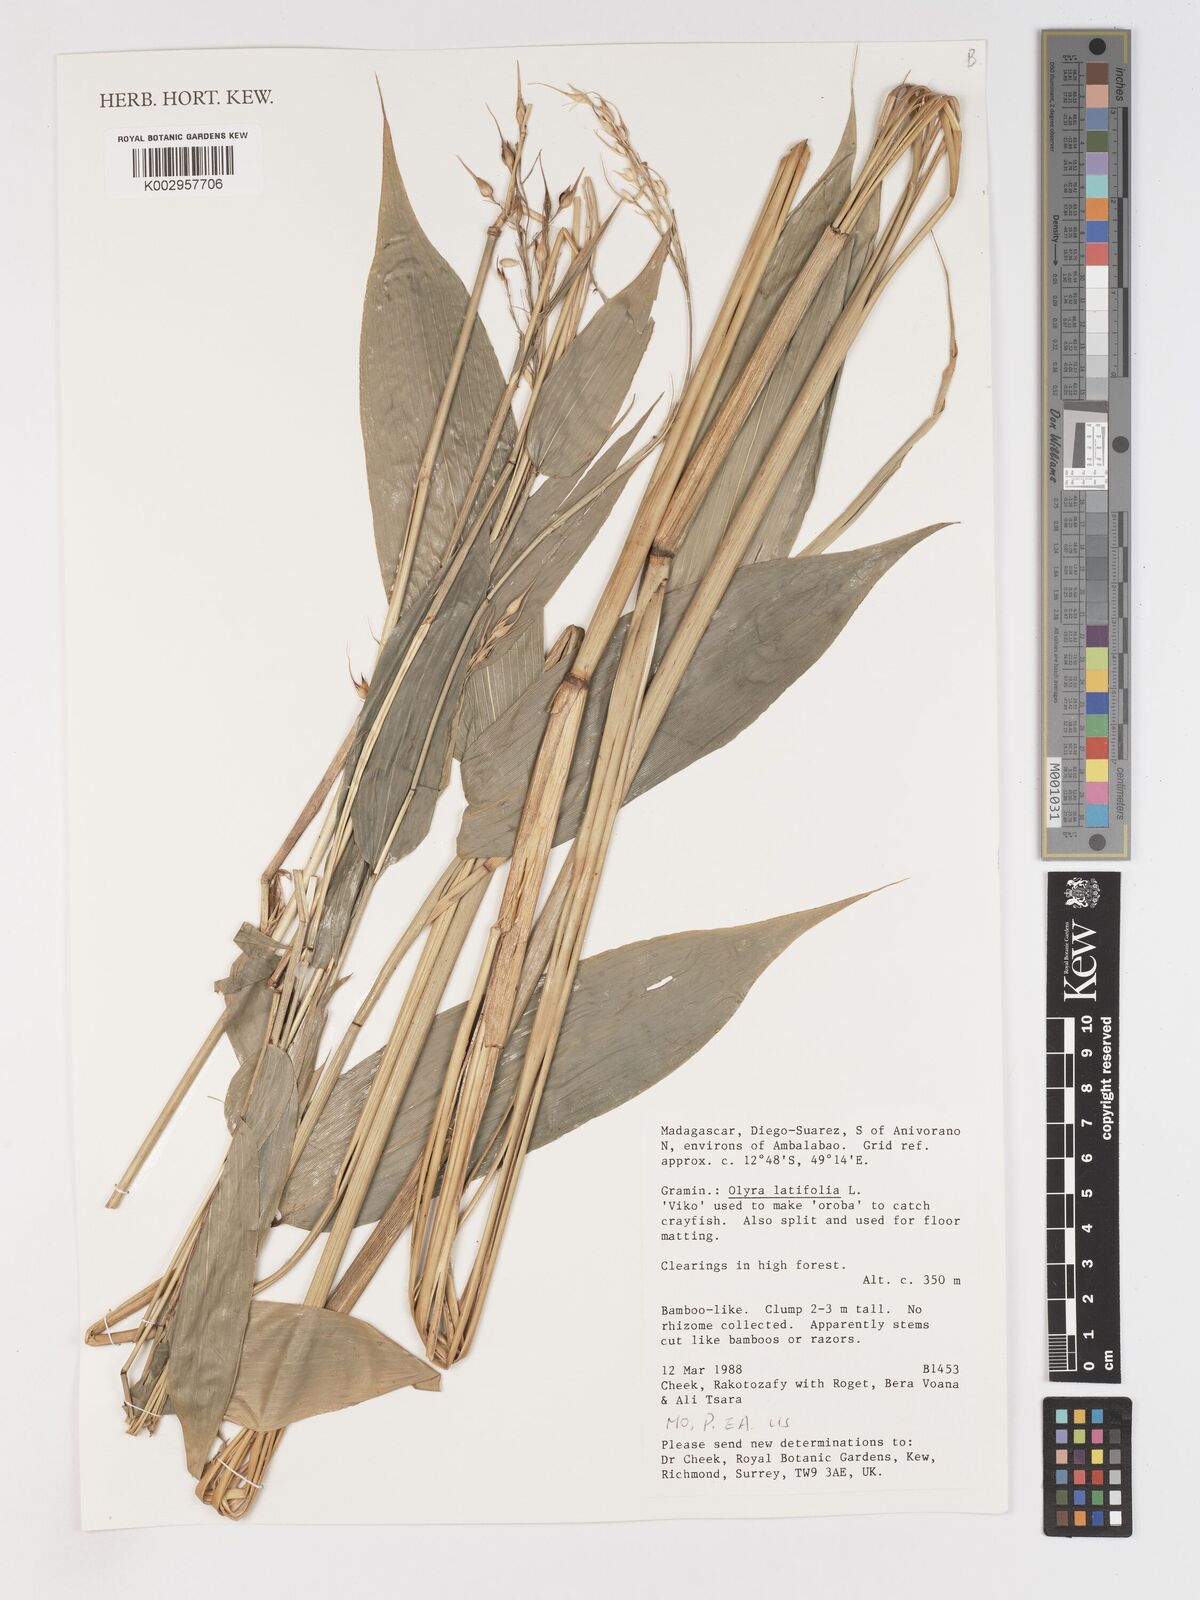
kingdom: Plantae
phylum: Tracheophyta
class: Liliopsida
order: Poales
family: Poaceae
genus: Olyra
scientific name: Olyra latifolia
